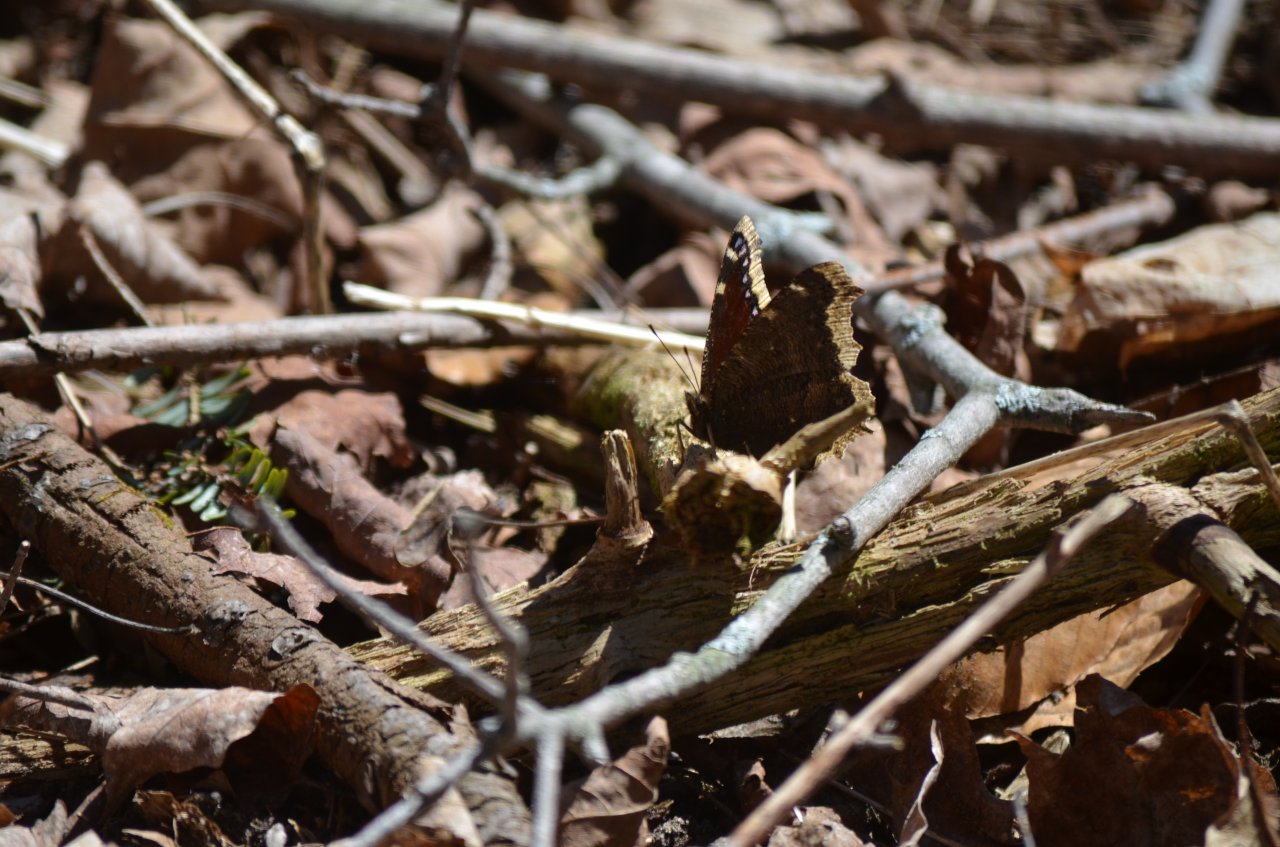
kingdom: Animalia
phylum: Arthropoda
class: Insecta
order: Lepidoptera
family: Nymphalidae
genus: Nymphalis
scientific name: Nymphalis antiopa
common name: Mourning Cloak
